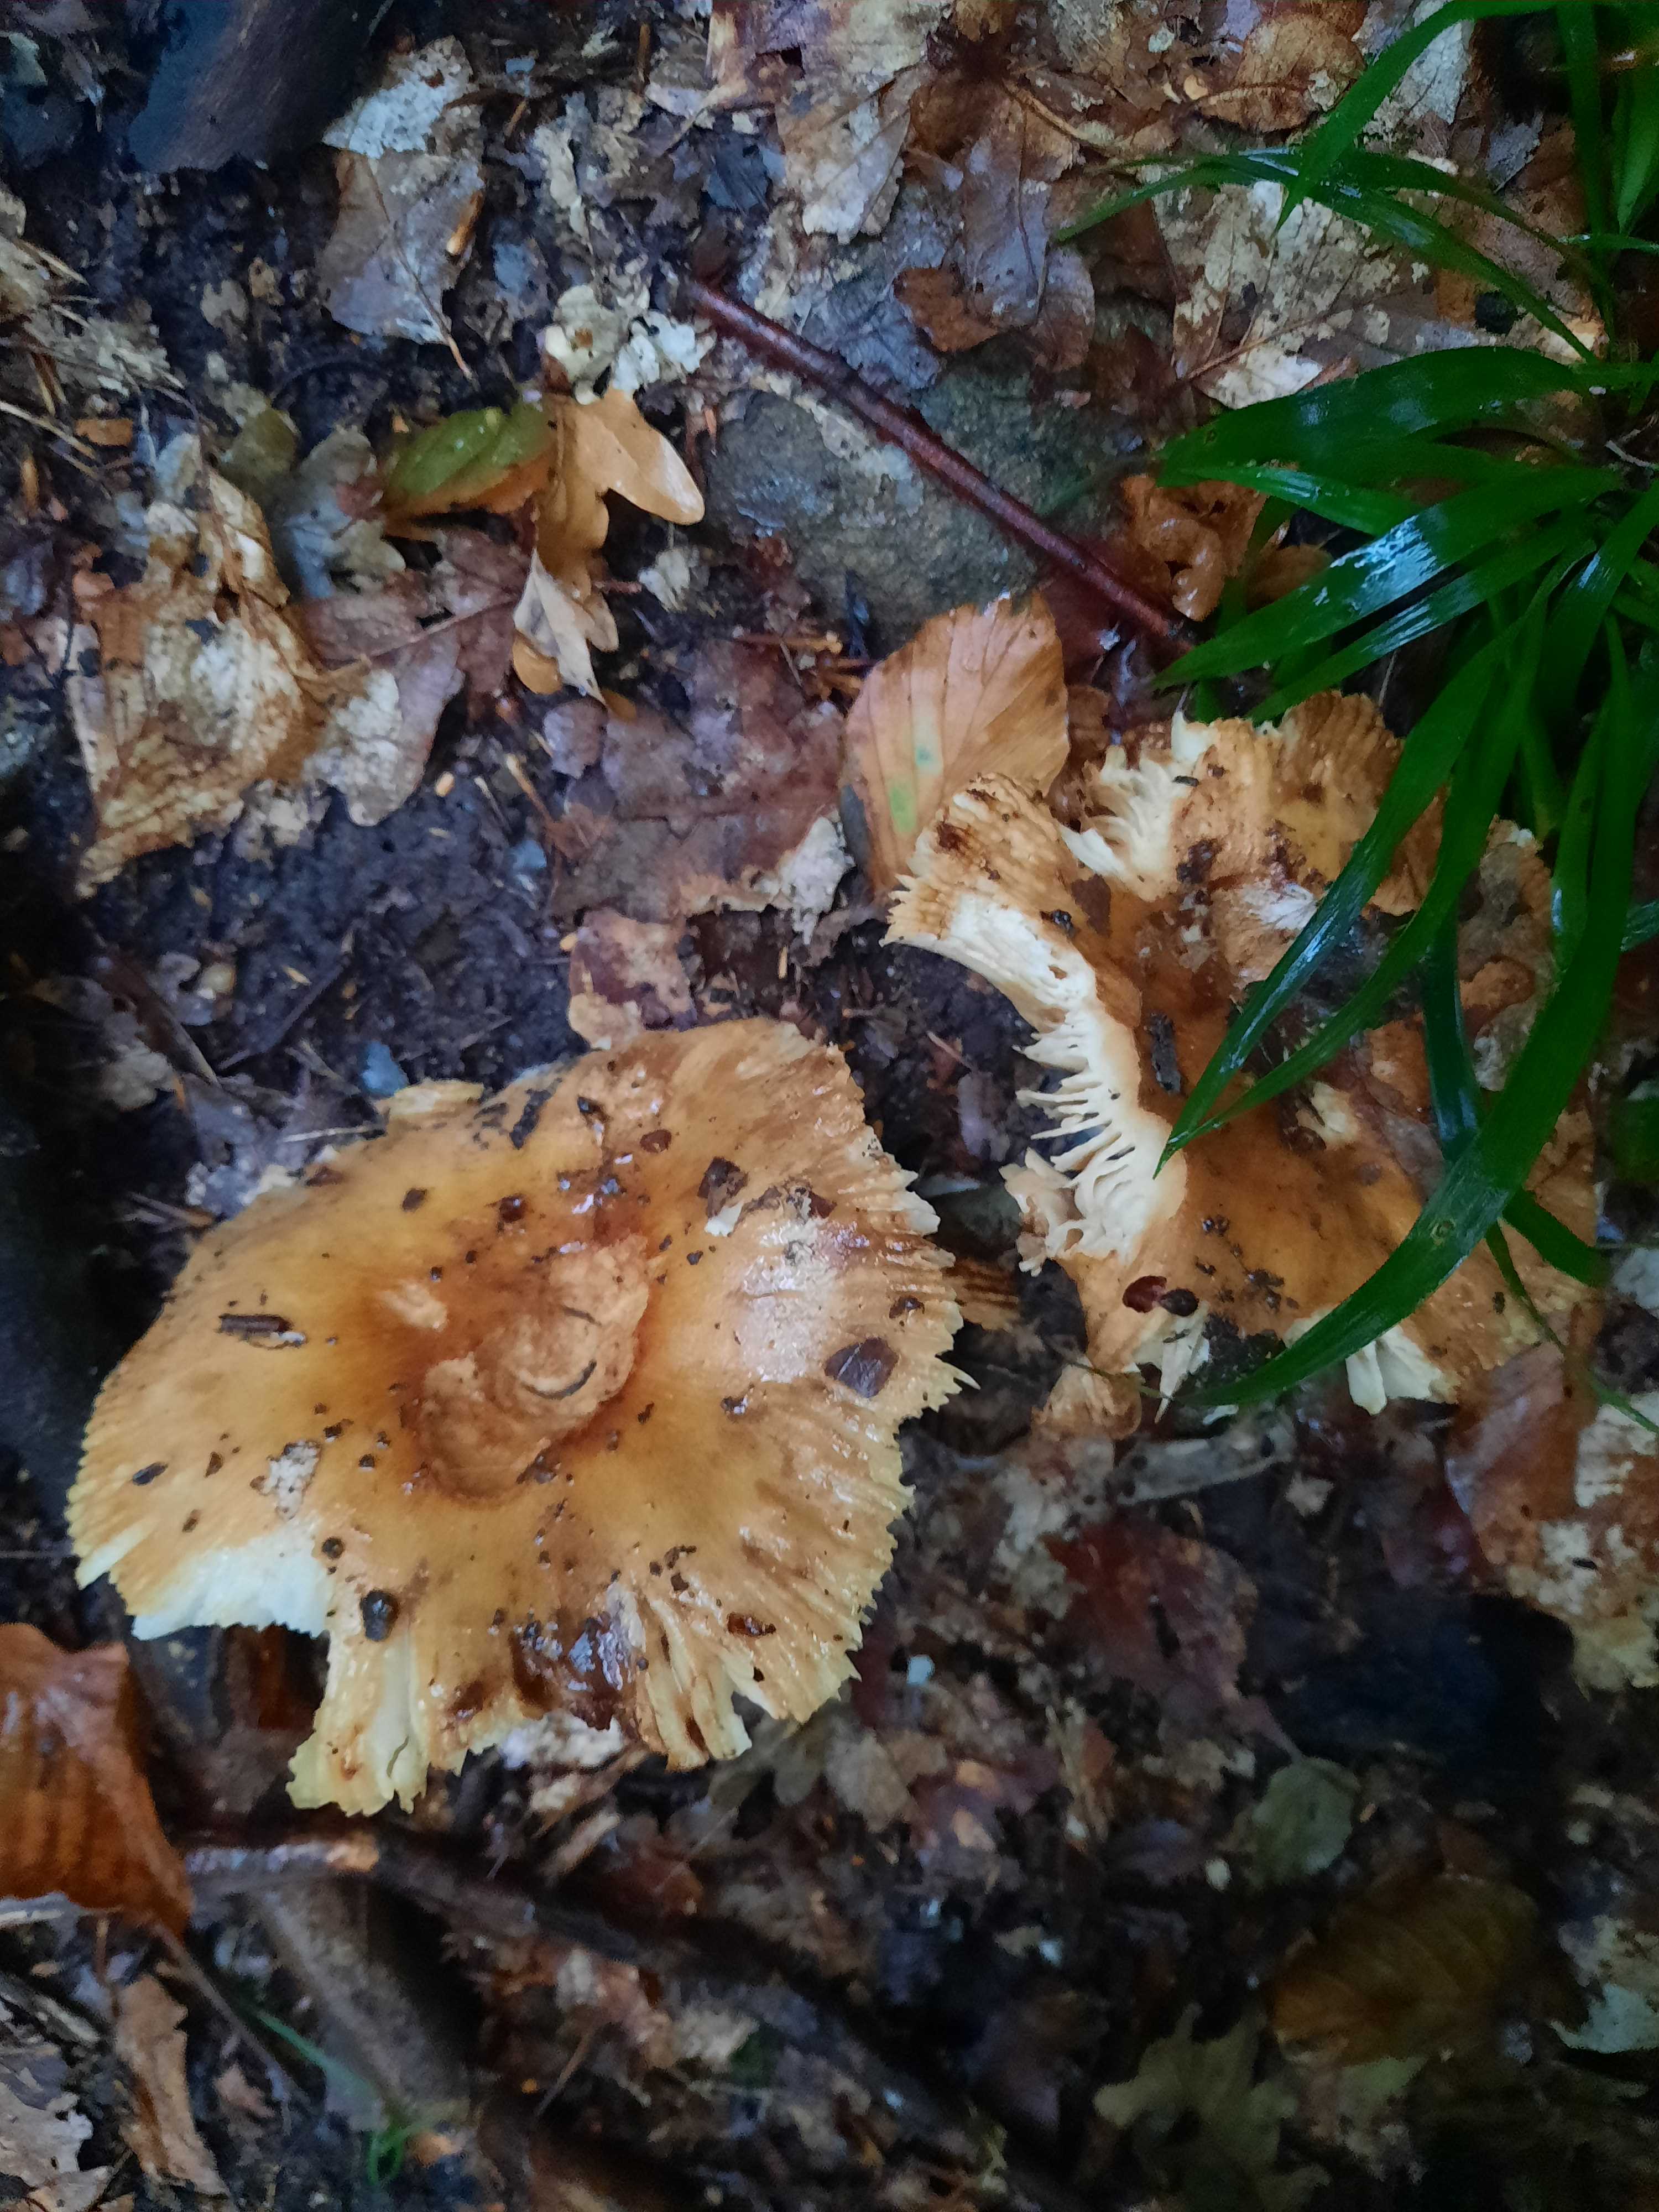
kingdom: Fungi
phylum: Basidiomycota
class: Agaricomycetes
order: Russulales
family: Russulaceae
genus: Russula
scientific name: Russula
